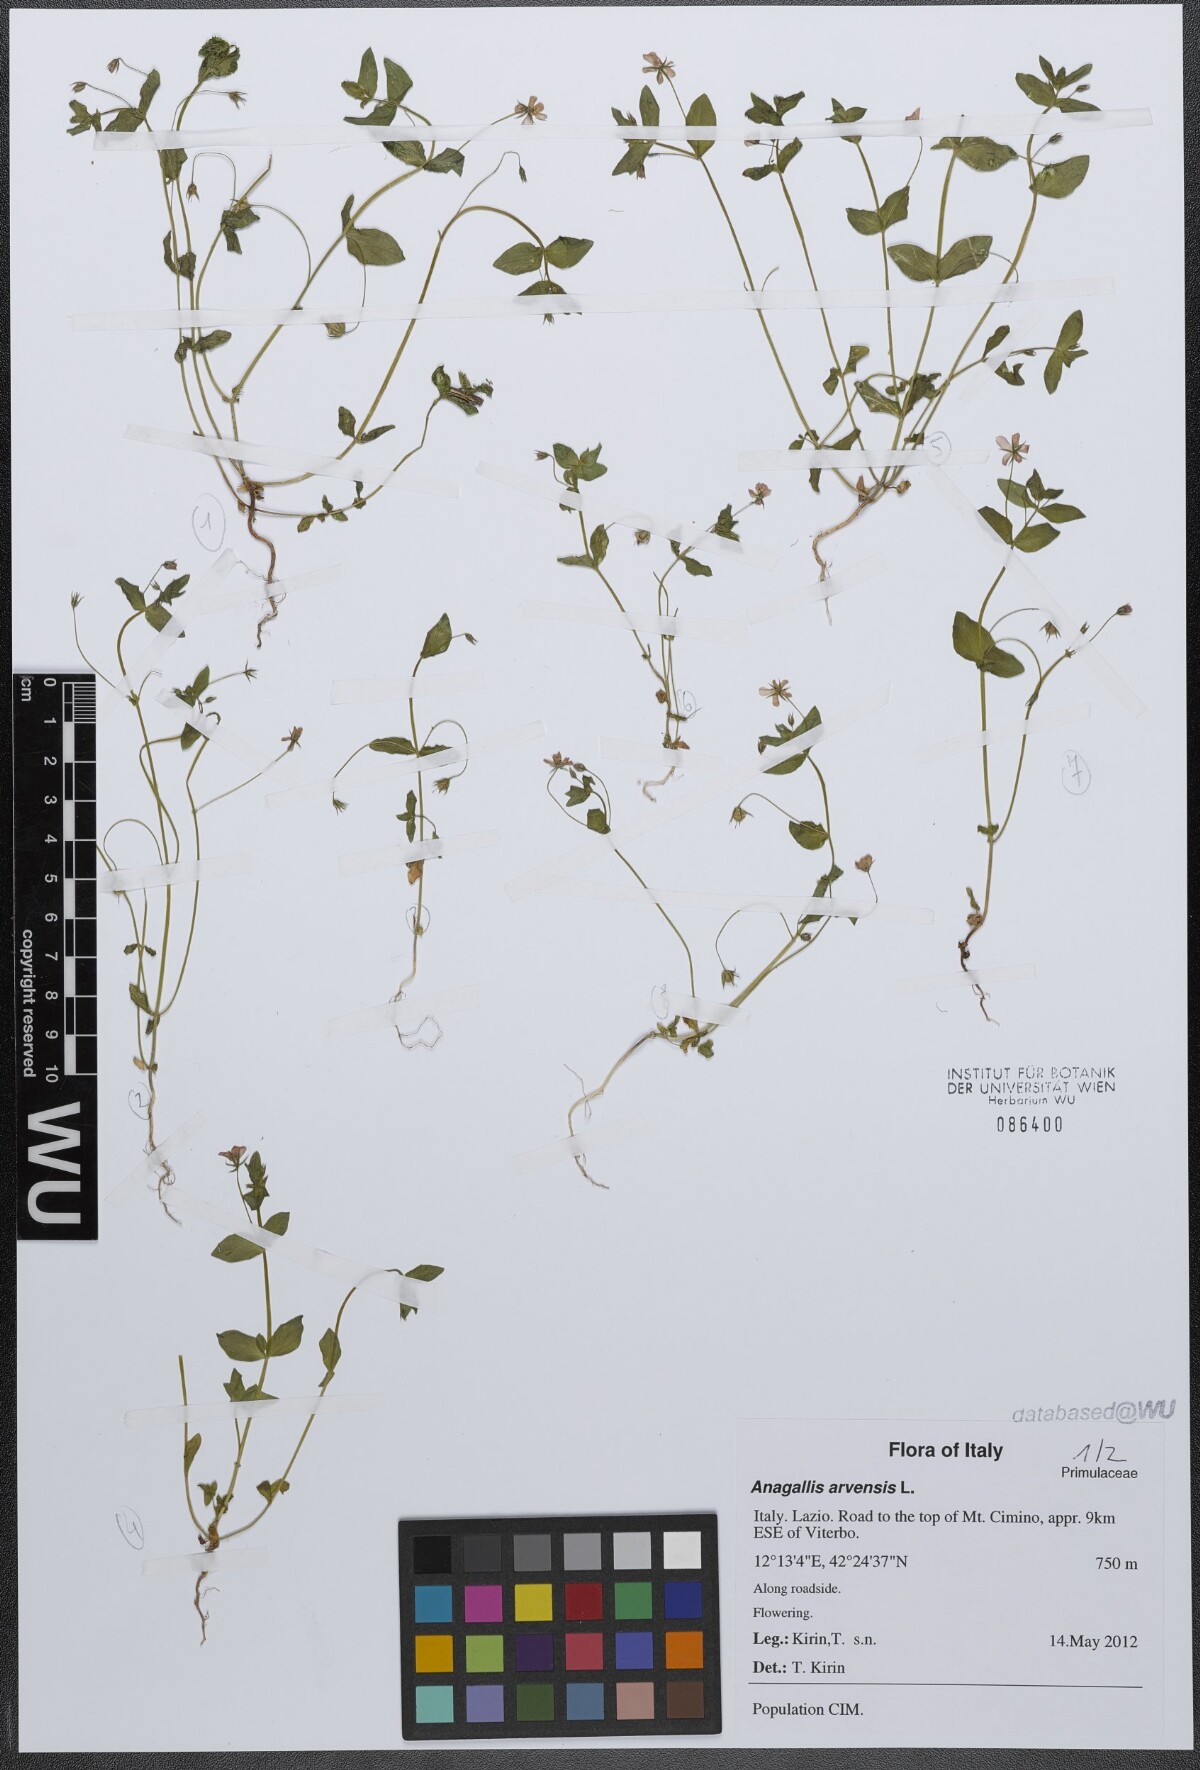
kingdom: Plantae
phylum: Tracheophyta
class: Magnoliopsida
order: Ericales
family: Primulaceae
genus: Lysimachia
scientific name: Lysimachia arvensis
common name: Scarlet pimpernel
